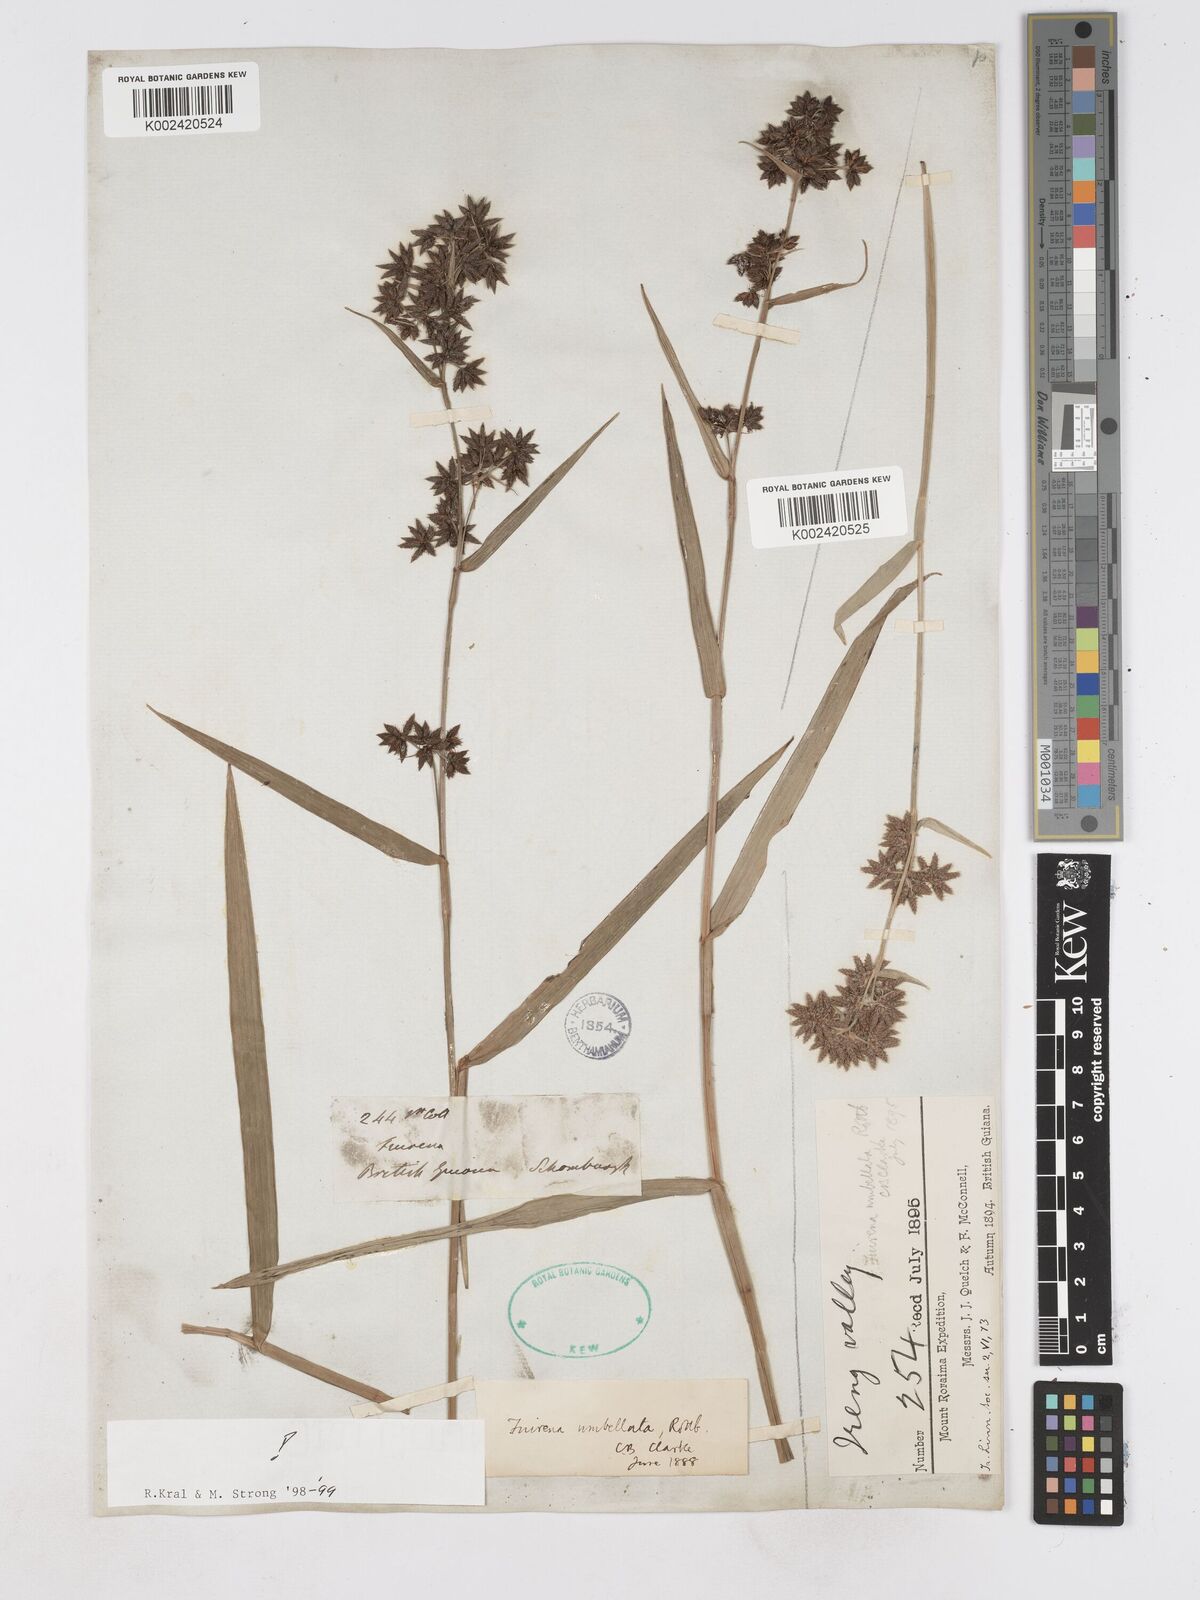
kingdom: Plantae
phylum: Tracheophyta
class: Liliopsida
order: Poales
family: Cyperaceae
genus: Fuirena
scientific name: Fuirena umbellata
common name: Yefen
